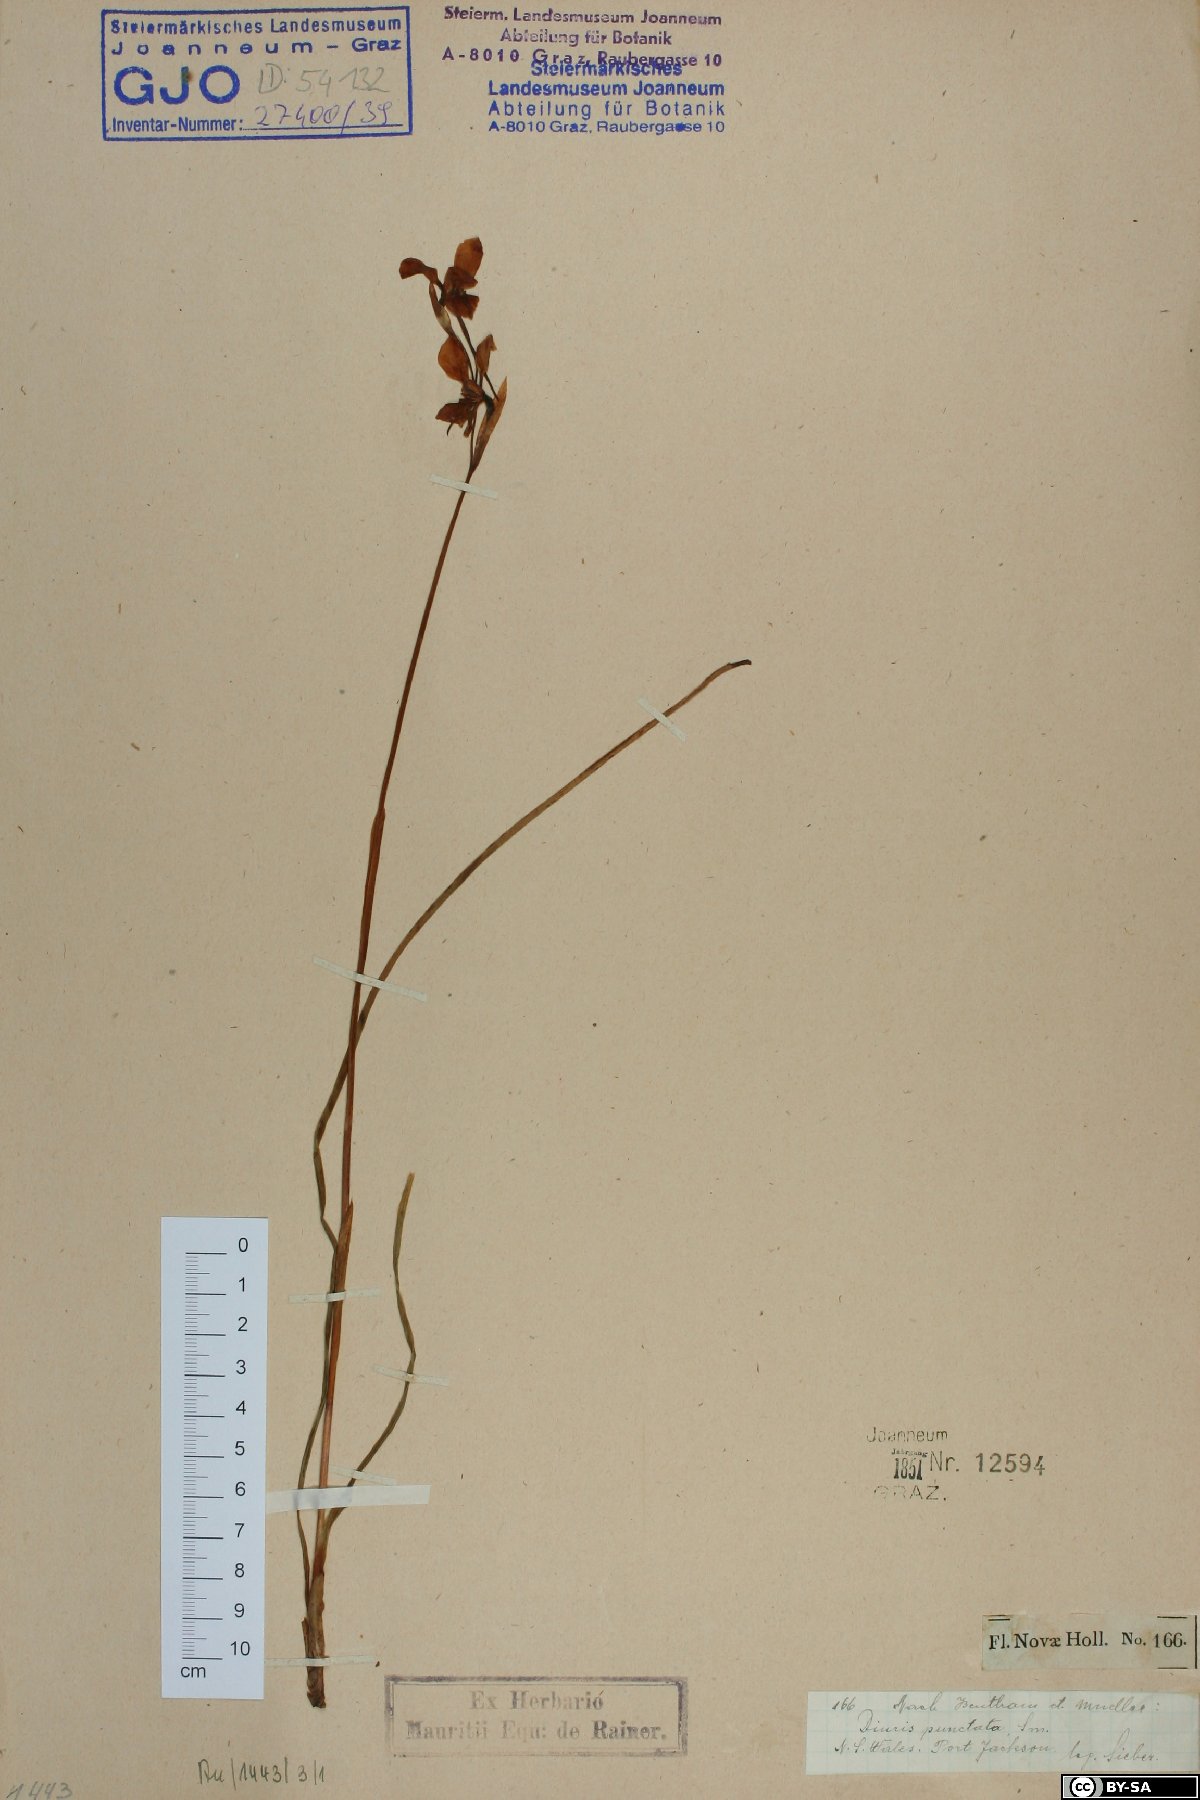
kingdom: Plantae
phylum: Tracheophyta
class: Liliopsida
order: Asparagales
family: Orchidaceae
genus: Diuris
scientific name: Diuris punctata
